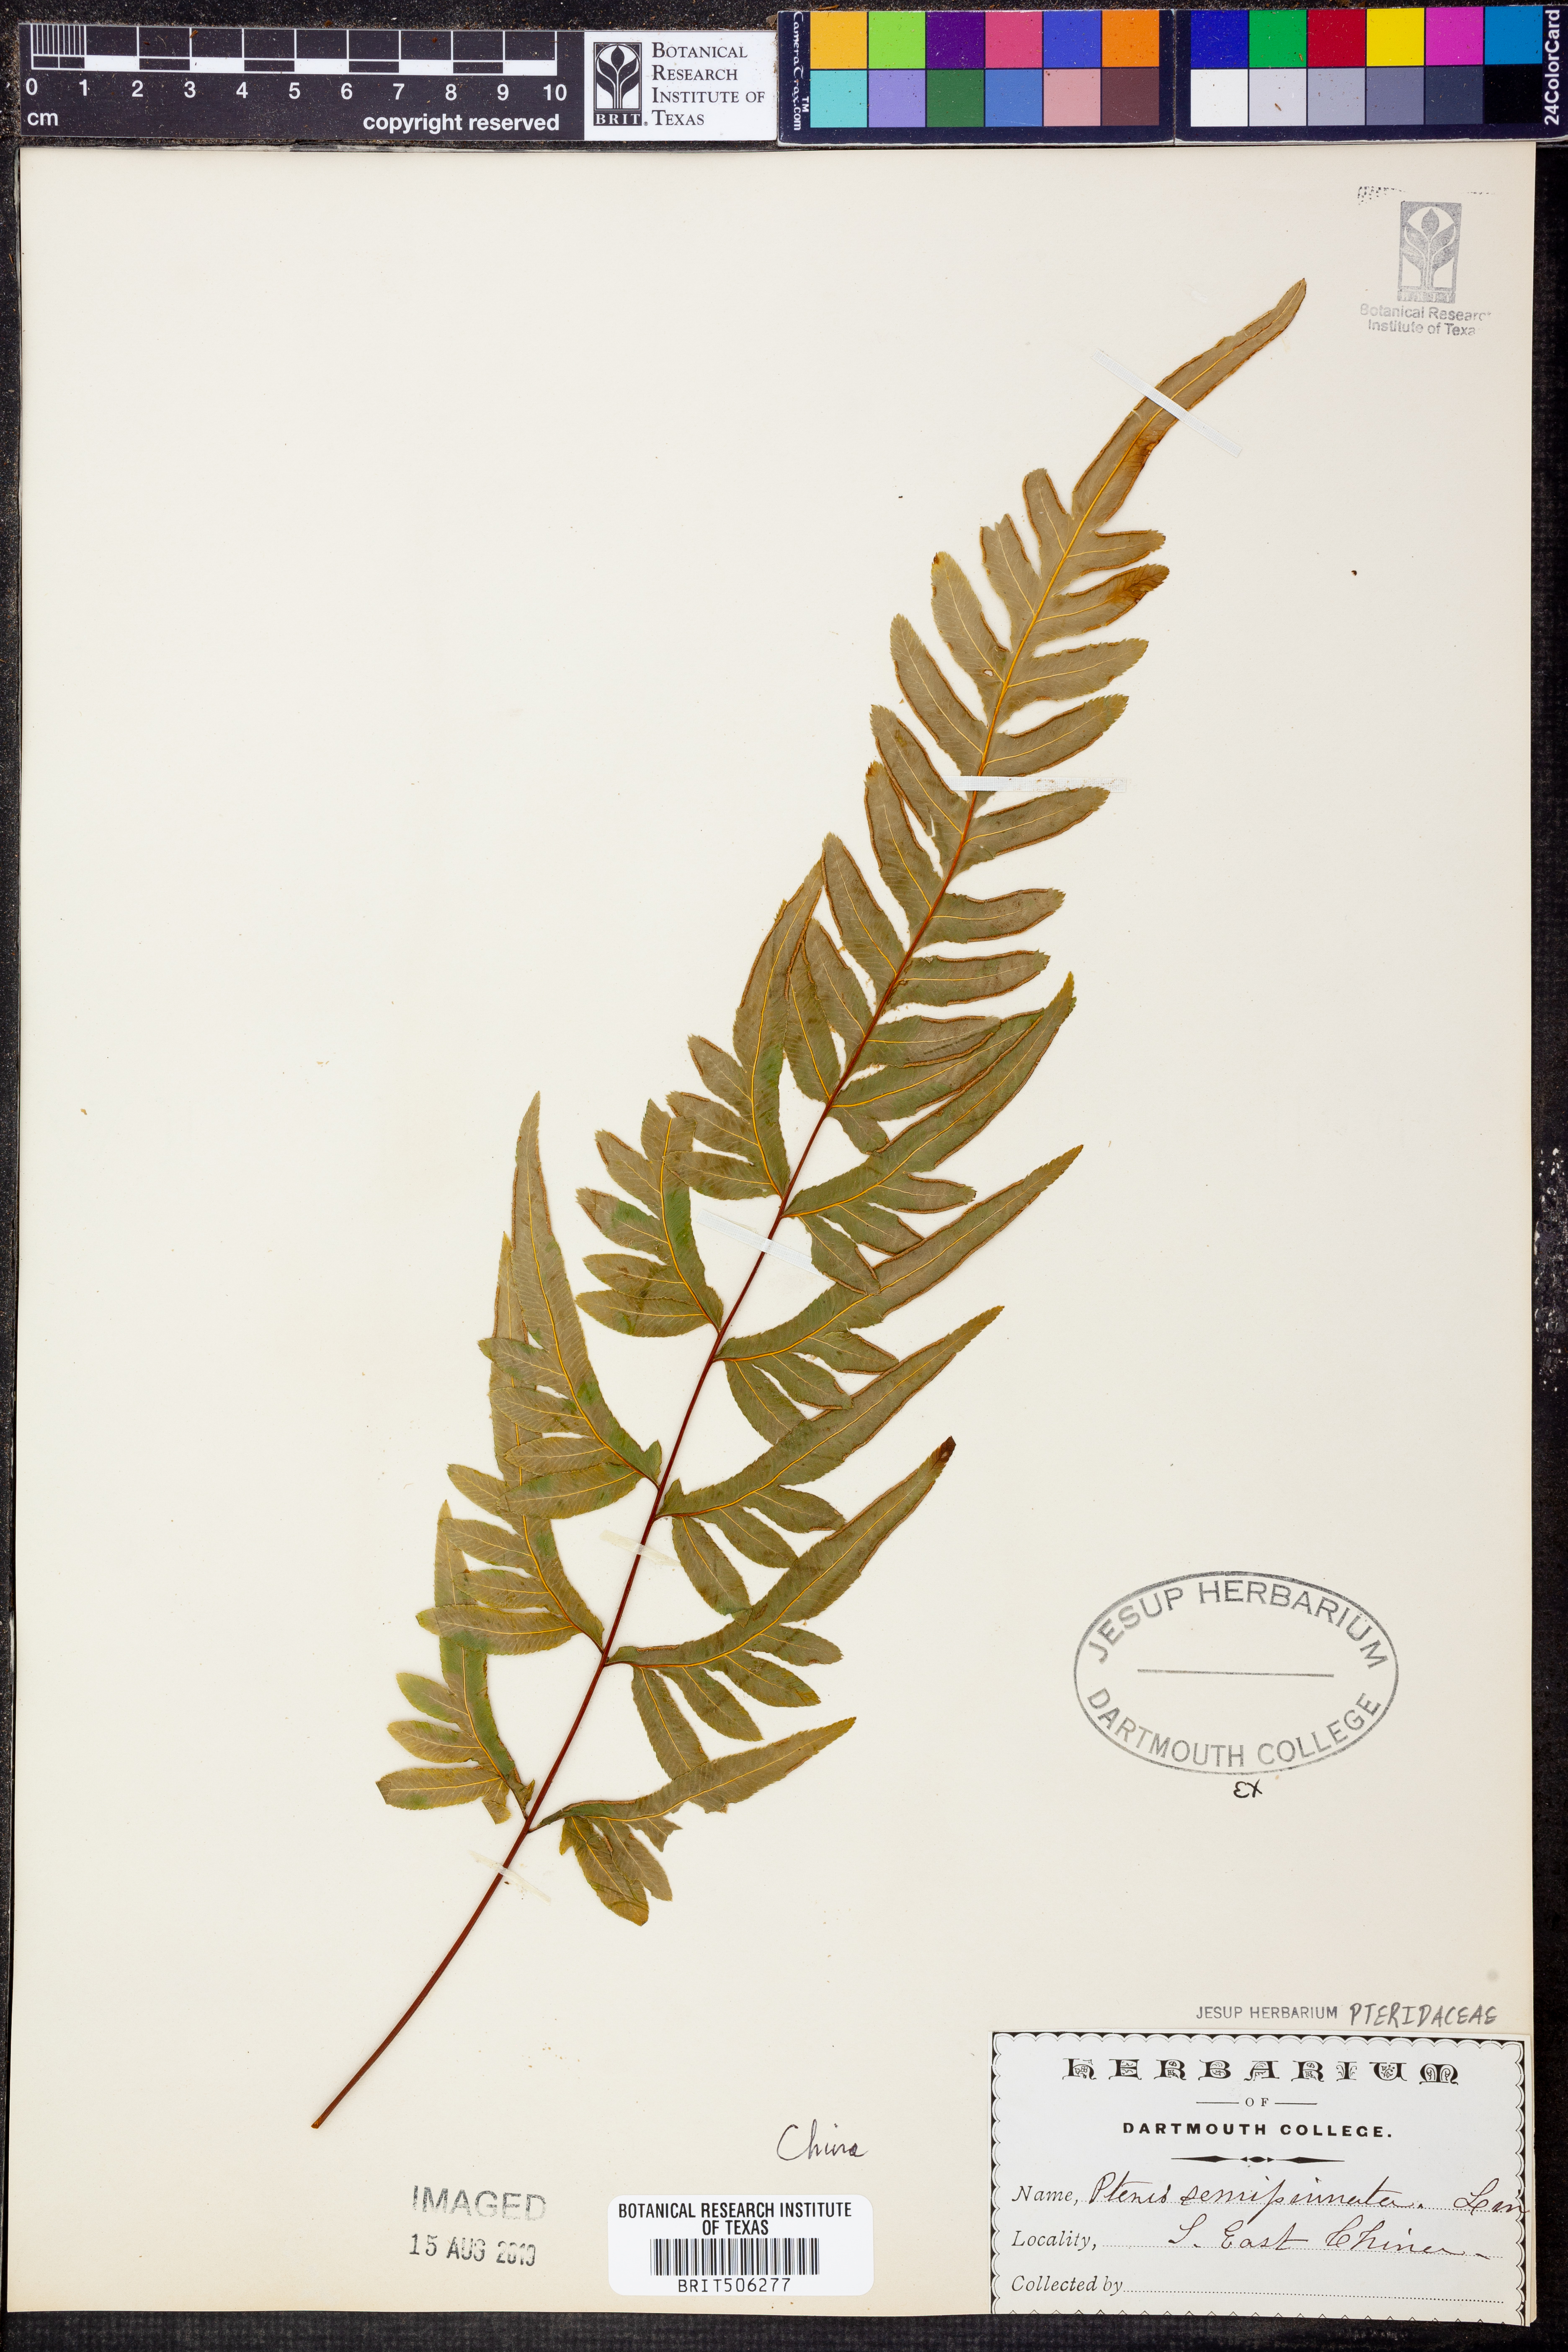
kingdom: Plantae
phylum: Tracheophyta
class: Polypodiopsida
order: Polypodiales
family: Pteridaceae
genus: Pteris
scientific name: Pteris semipinnata
